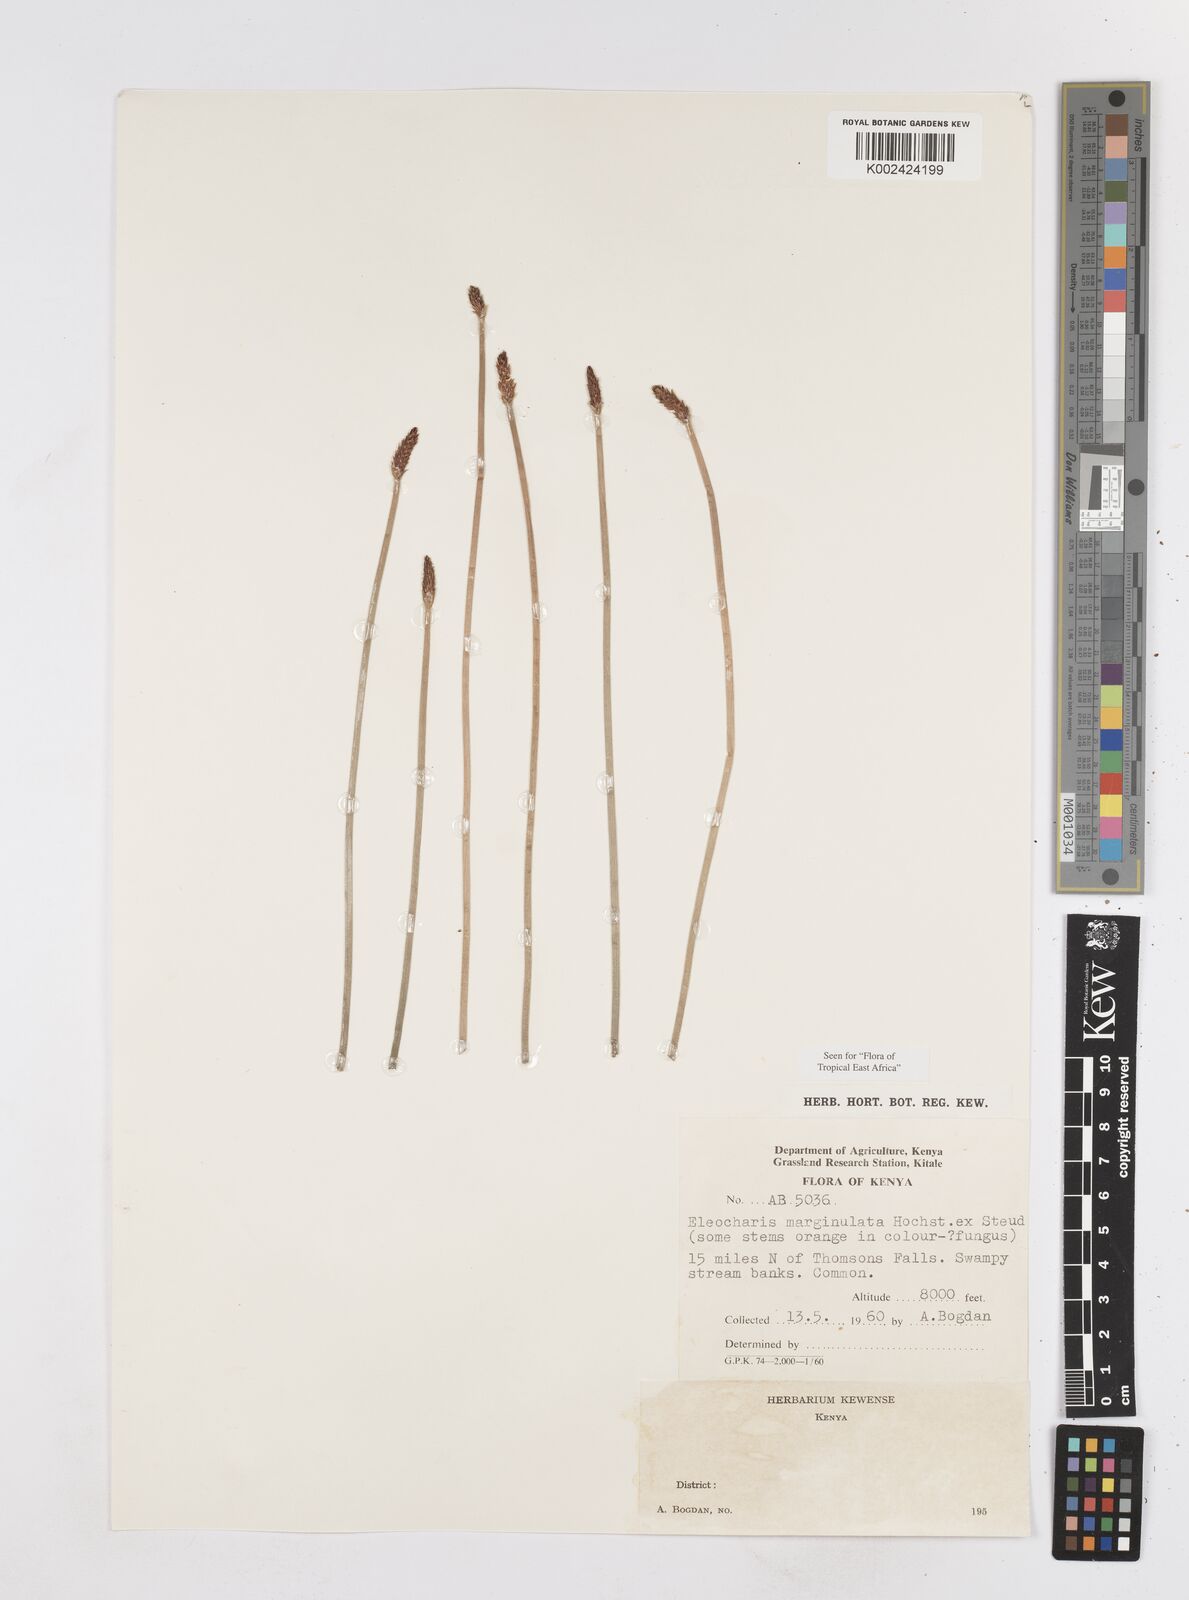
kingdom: Plantae
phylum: Tracheophyta
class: Liliopsida
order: Poales
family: Cyperaceae
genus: Eleocharis
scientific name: Eleocharis marginulata
